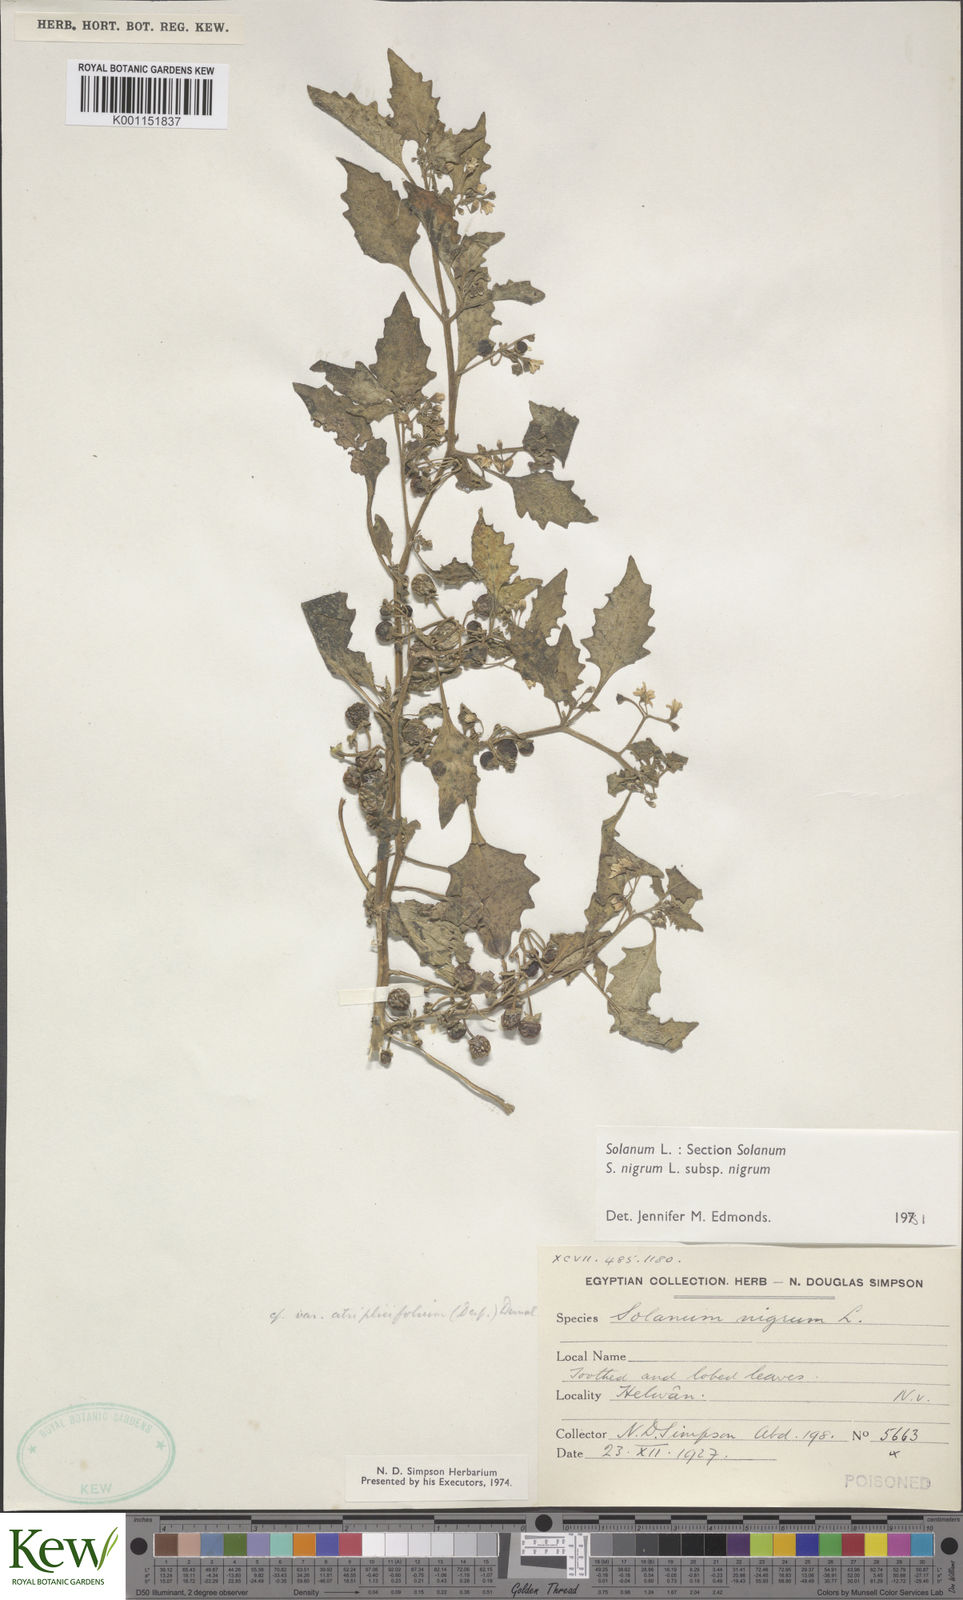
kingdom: Plantae
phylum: Tracheophyta
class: Magnoliopsida
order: Solanales
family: Solanaceae
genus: Solanum
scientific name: Solanum nigrum
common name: Black nightshade
